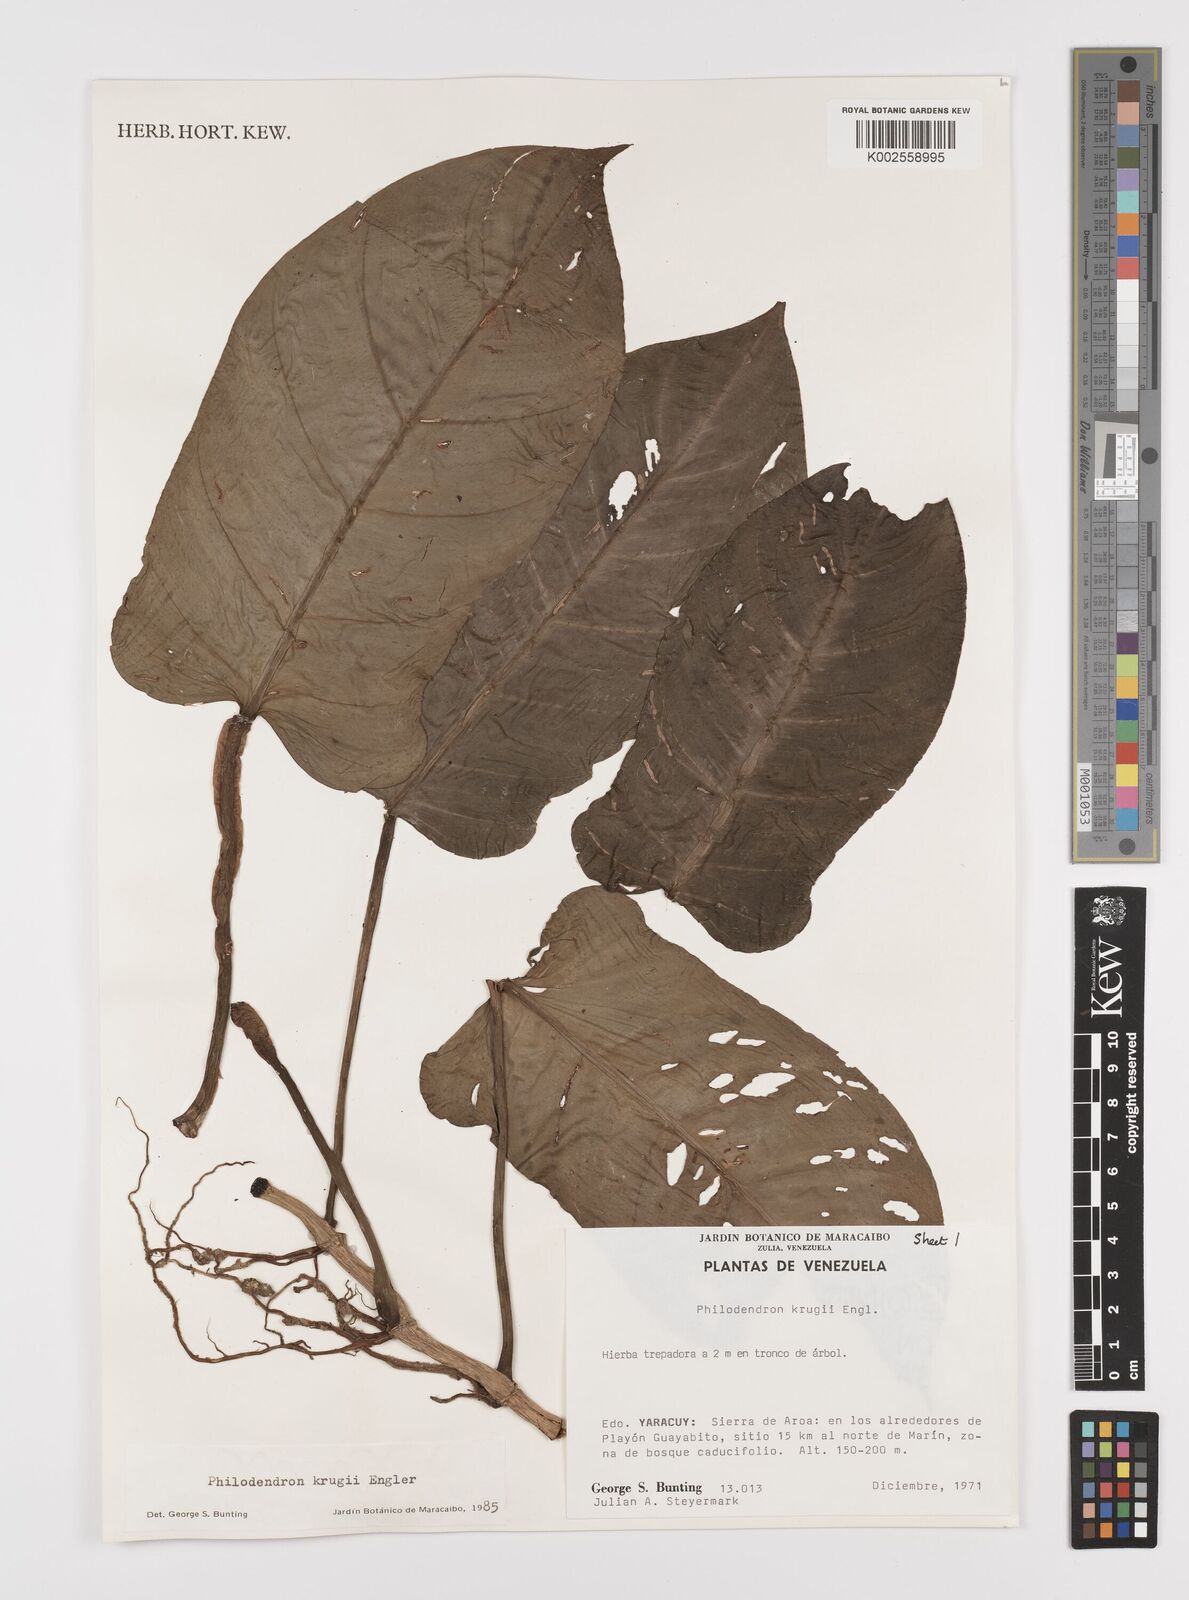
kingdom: Plantae
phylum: Tracheophyta
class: Liliopsida
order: Alismatales
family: Araceae
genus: Philodendron
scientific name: Philodendron krugii
